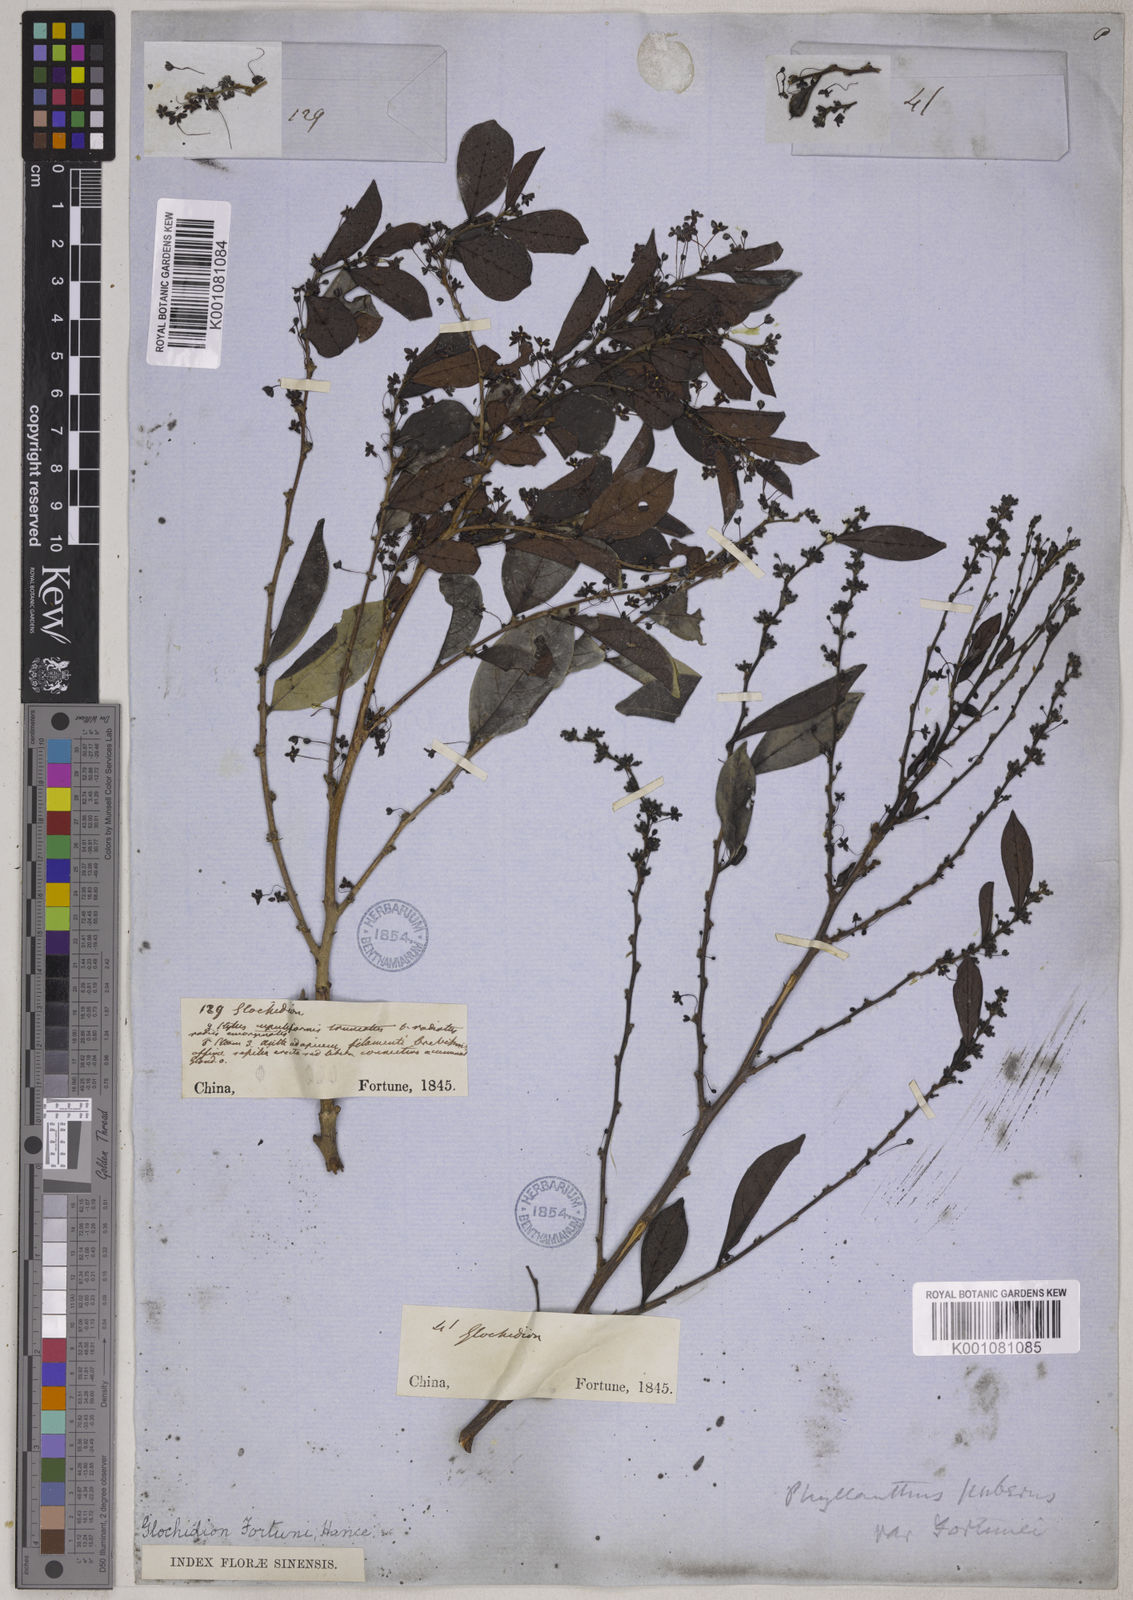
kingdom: Plantae
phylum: Tracheophyta
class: Magnoliopsida
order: Malpighiales
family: Phyllanthaceae
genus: Glochidion
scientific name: Glochidion rubrum
